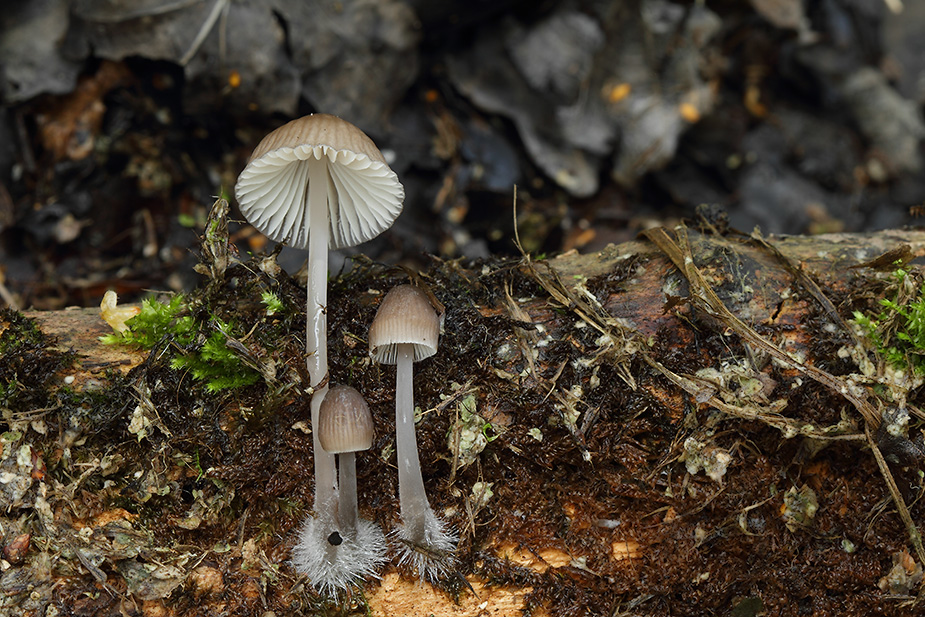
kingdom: Fungi
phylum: Basidiomycota
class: Agaricomycetes
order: Agaricales
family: Mycenaceae
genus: Mycena
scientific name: Mycena abramsii
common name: sommer-huesvamp
